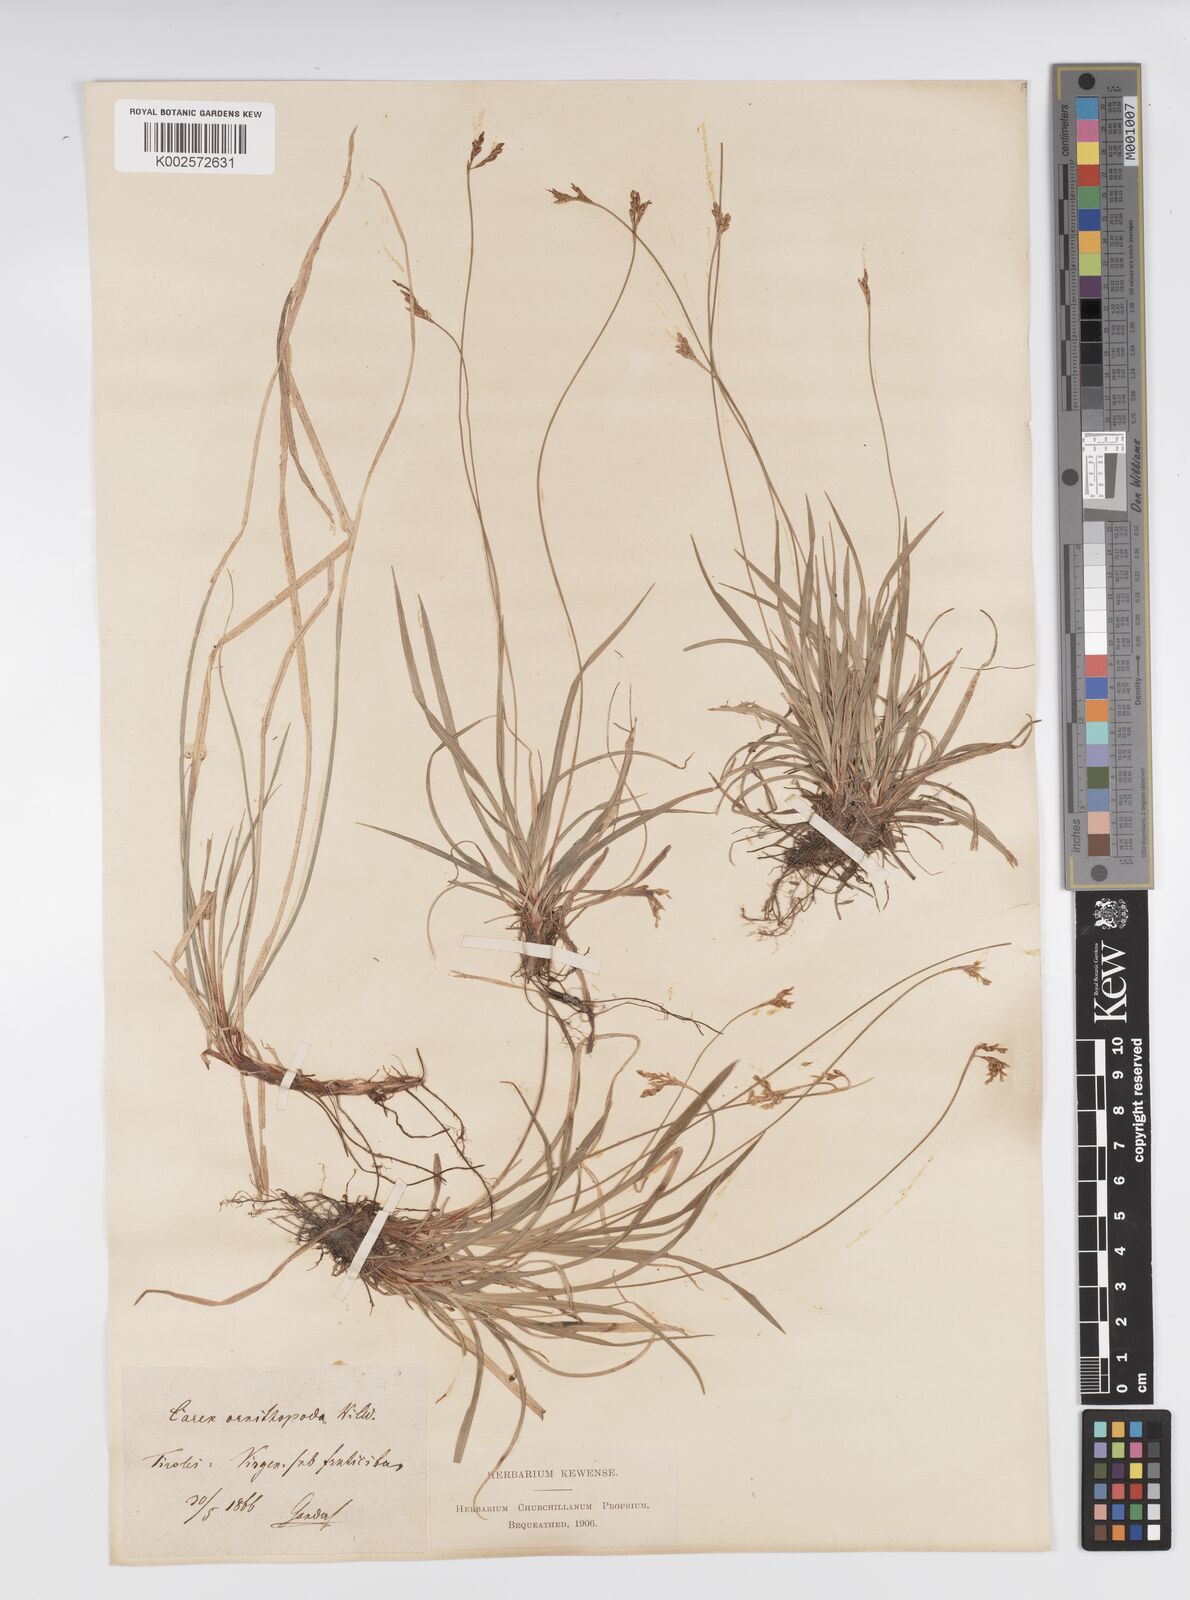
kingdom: Plantae
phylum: Tracheophyta
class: Liliopsida
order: Poales
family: Cyperaceae
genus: Carex
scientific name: Carex ornithopoda
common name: Bird's-foot sedge
